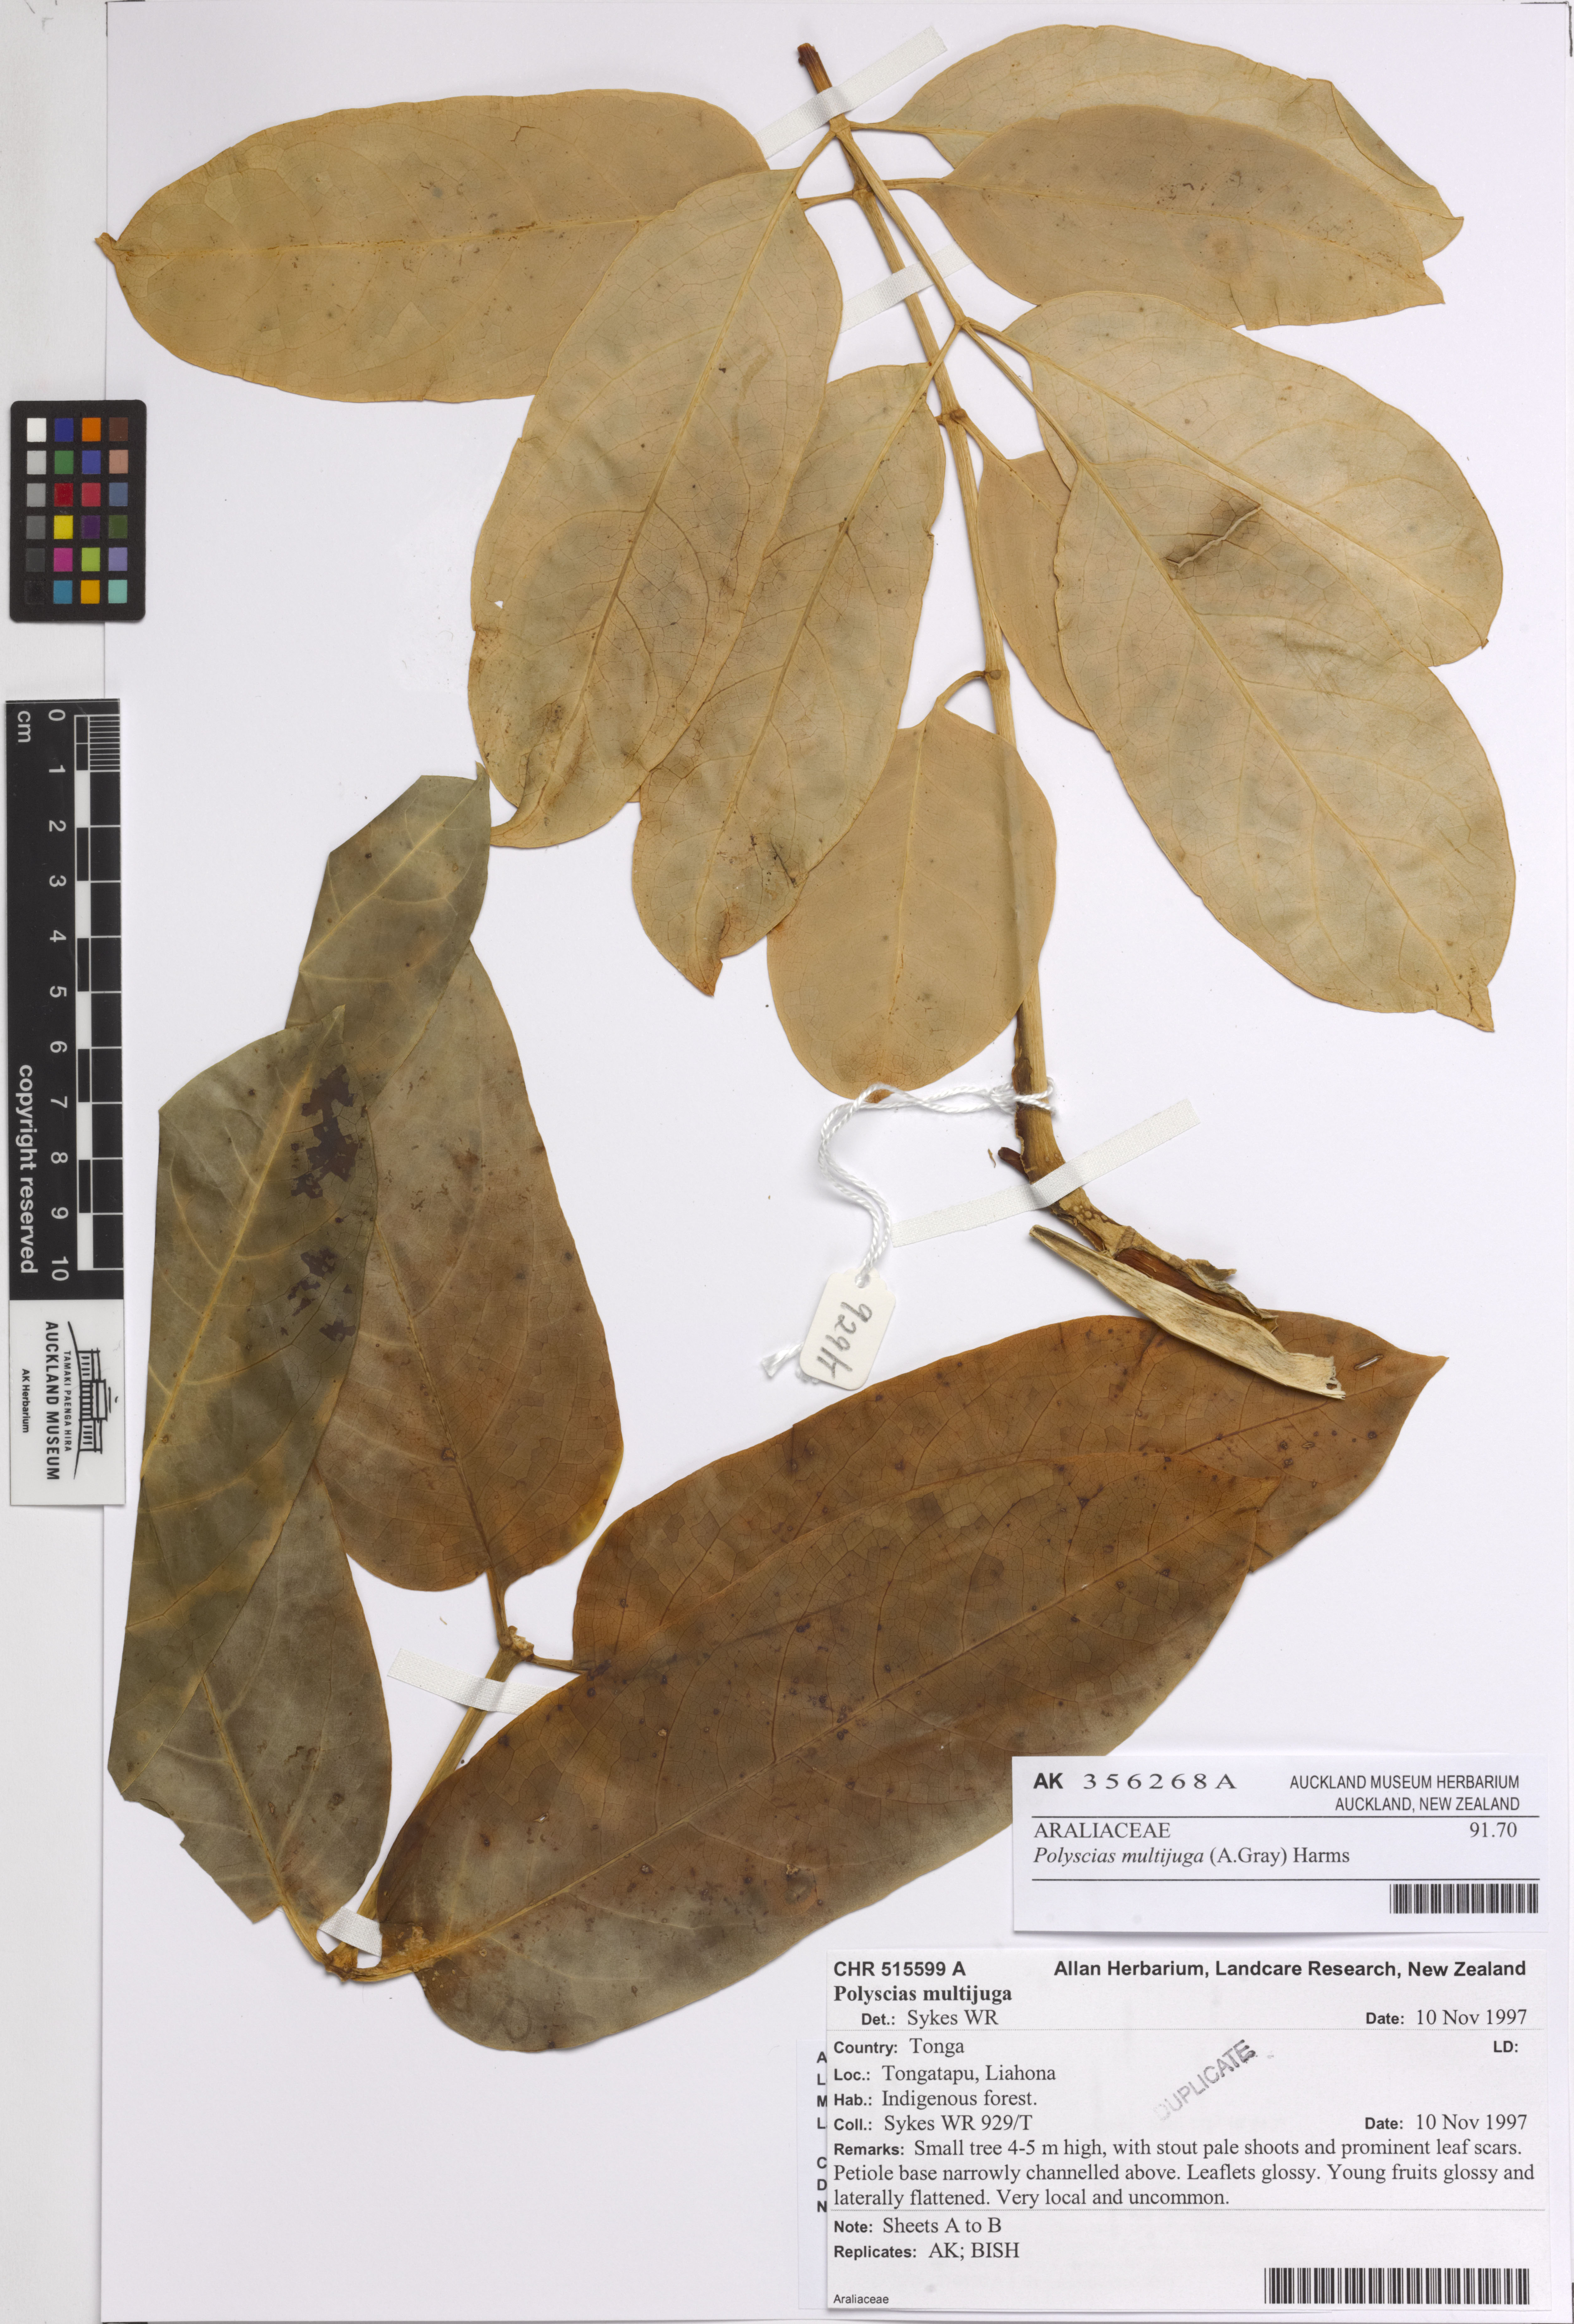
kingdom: Plantae
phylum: Tracheophyta
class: Magnoliopsida
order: Apiales
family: Araliaceae
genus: Polyscias
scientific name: Polyscias multijuga
